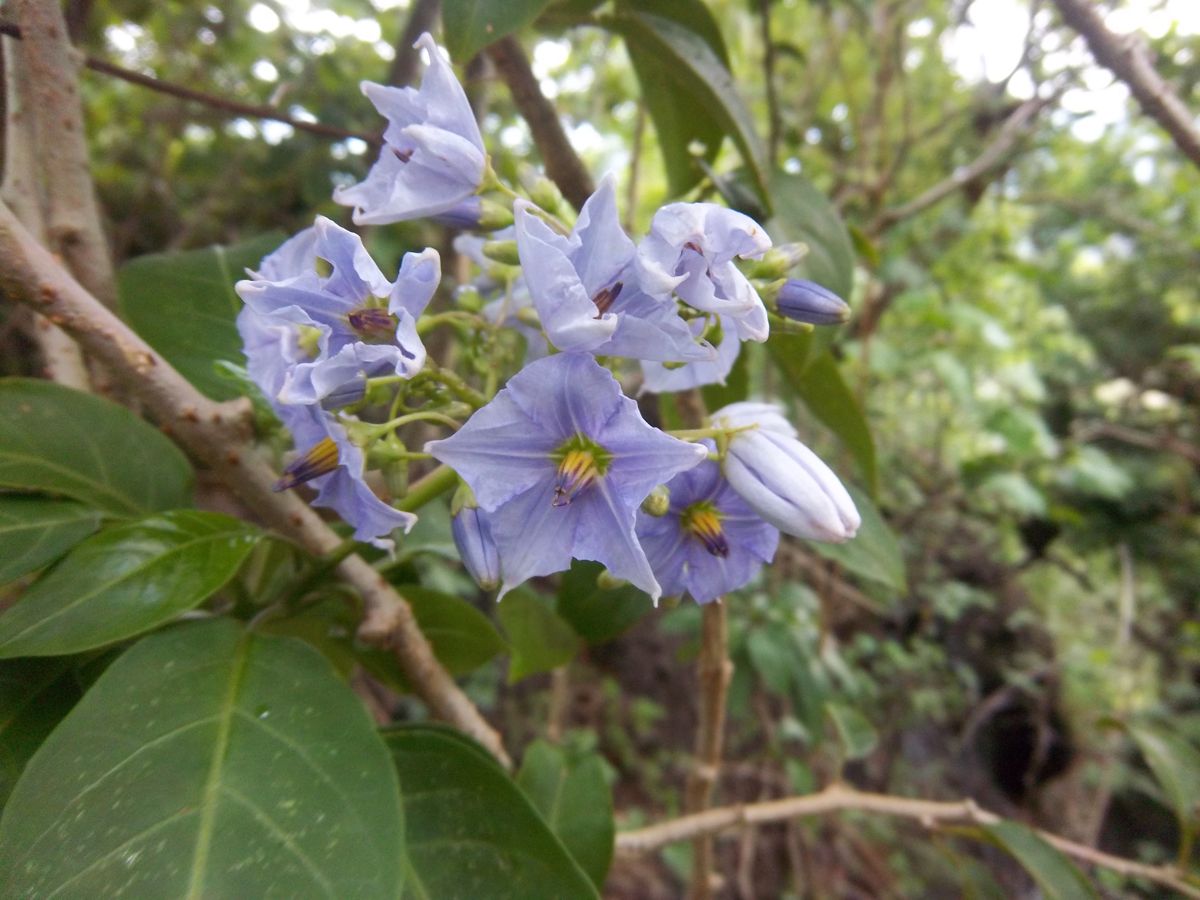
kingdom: Plantae
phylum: Tracheophyta
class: Magnoliopsida
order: Solanales
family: Solanaceae
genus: Solanum
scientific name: Solanum wendlandii
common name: Costa rican nightshade
